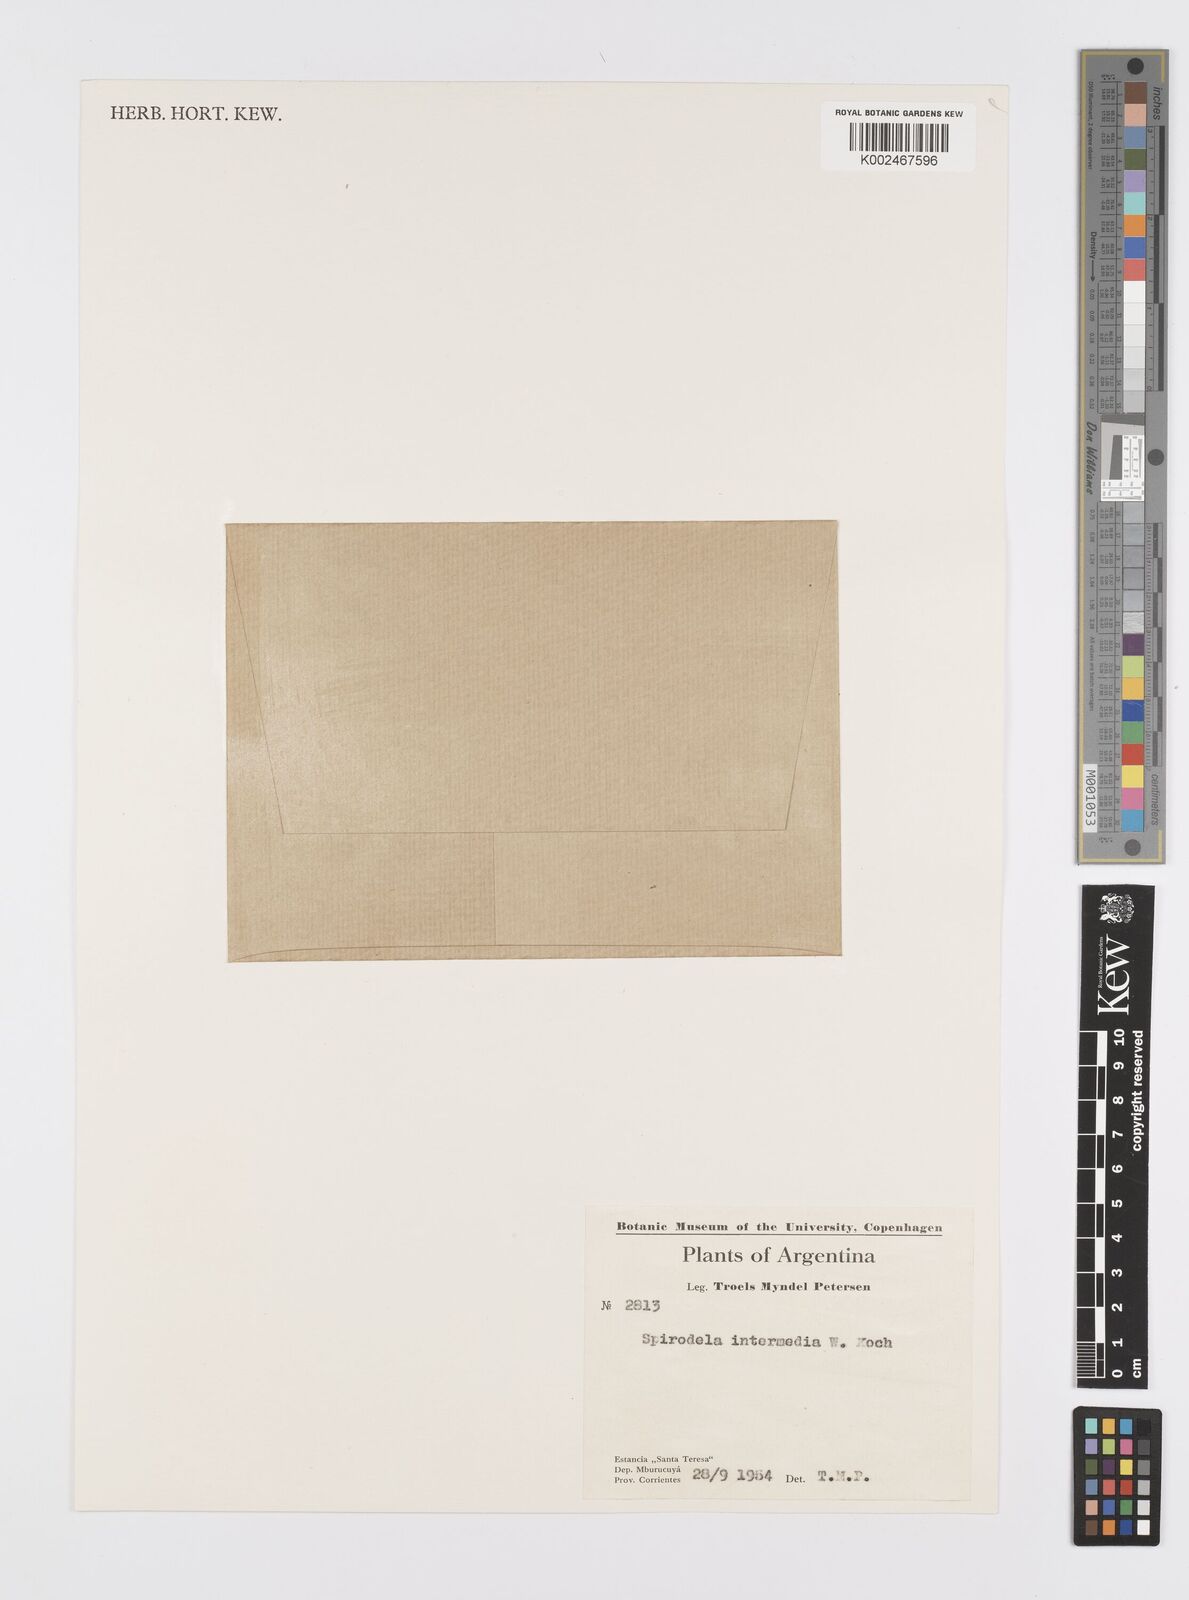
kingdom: Plantae
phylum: Tracheophyta
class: Liliopsida
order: Alismatales
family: Araceae
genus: Spirodela
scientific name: Spirodela punctata
